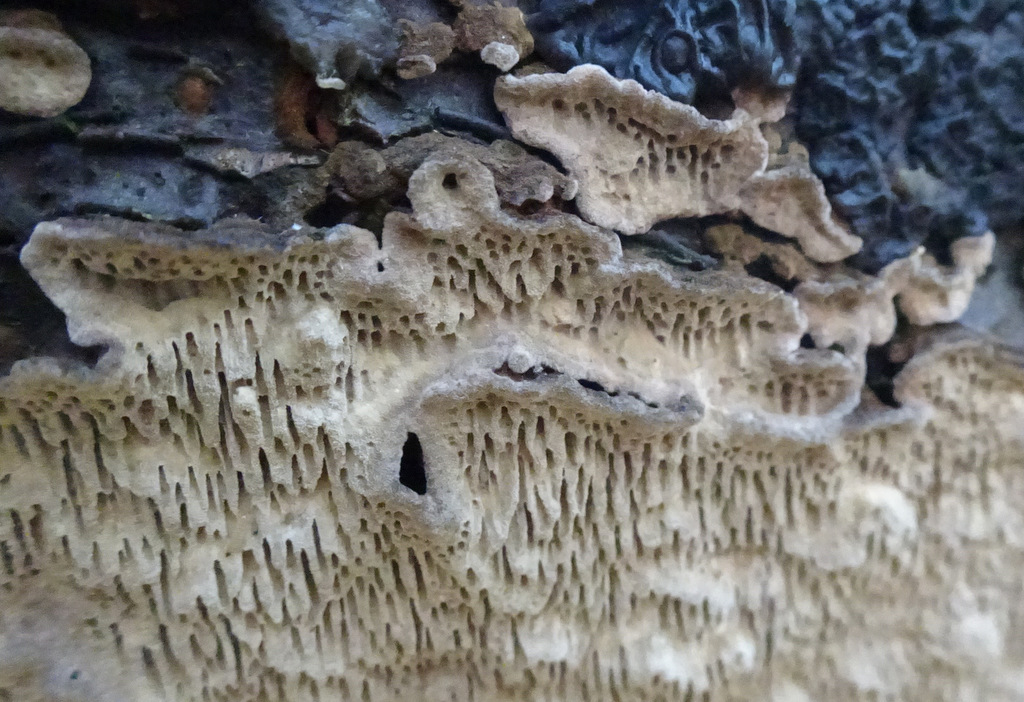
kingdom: Fungi
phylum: Basidiomycota
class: Agaricomycetes
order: Polyporales
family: Polyporaceae
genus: Podofomes
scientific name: Podofomes mollis
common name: blød begporesvamp
